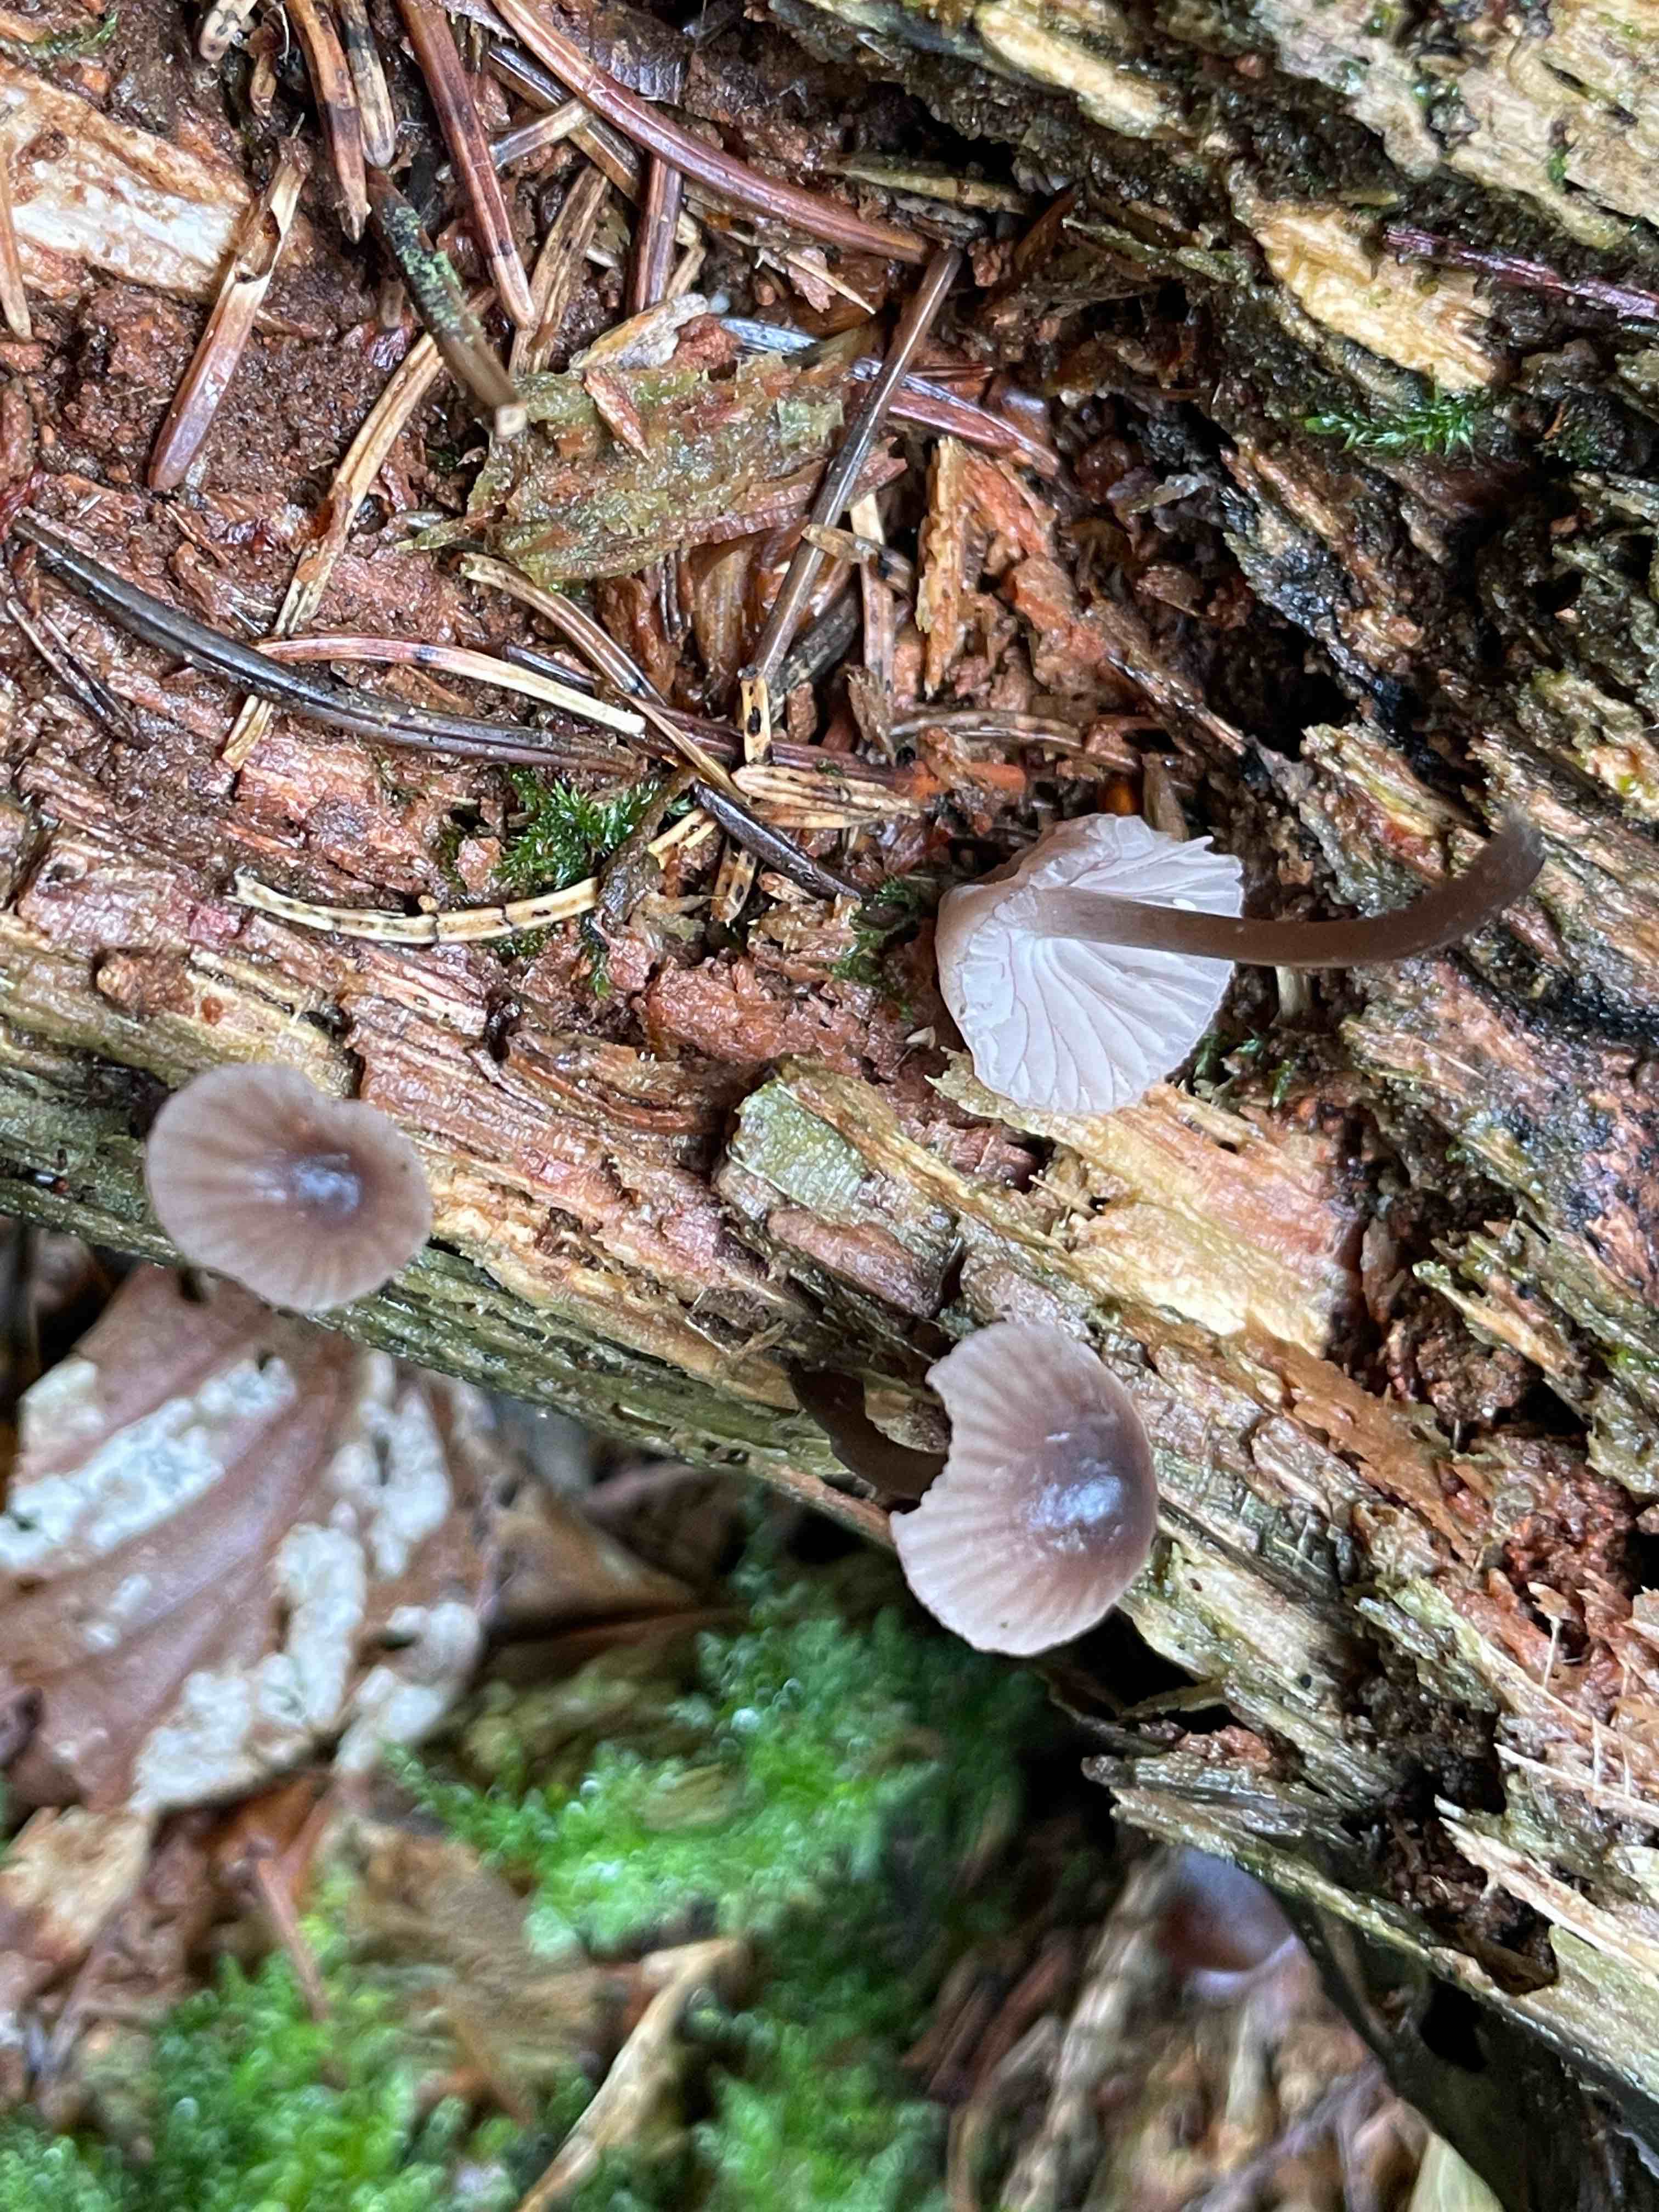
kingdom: Fungi
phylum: Basidiomycota
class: Agaricomycetes
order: Agaricales
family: Mycenaceae
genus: Mycena
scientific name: Mycena rubromarginata
